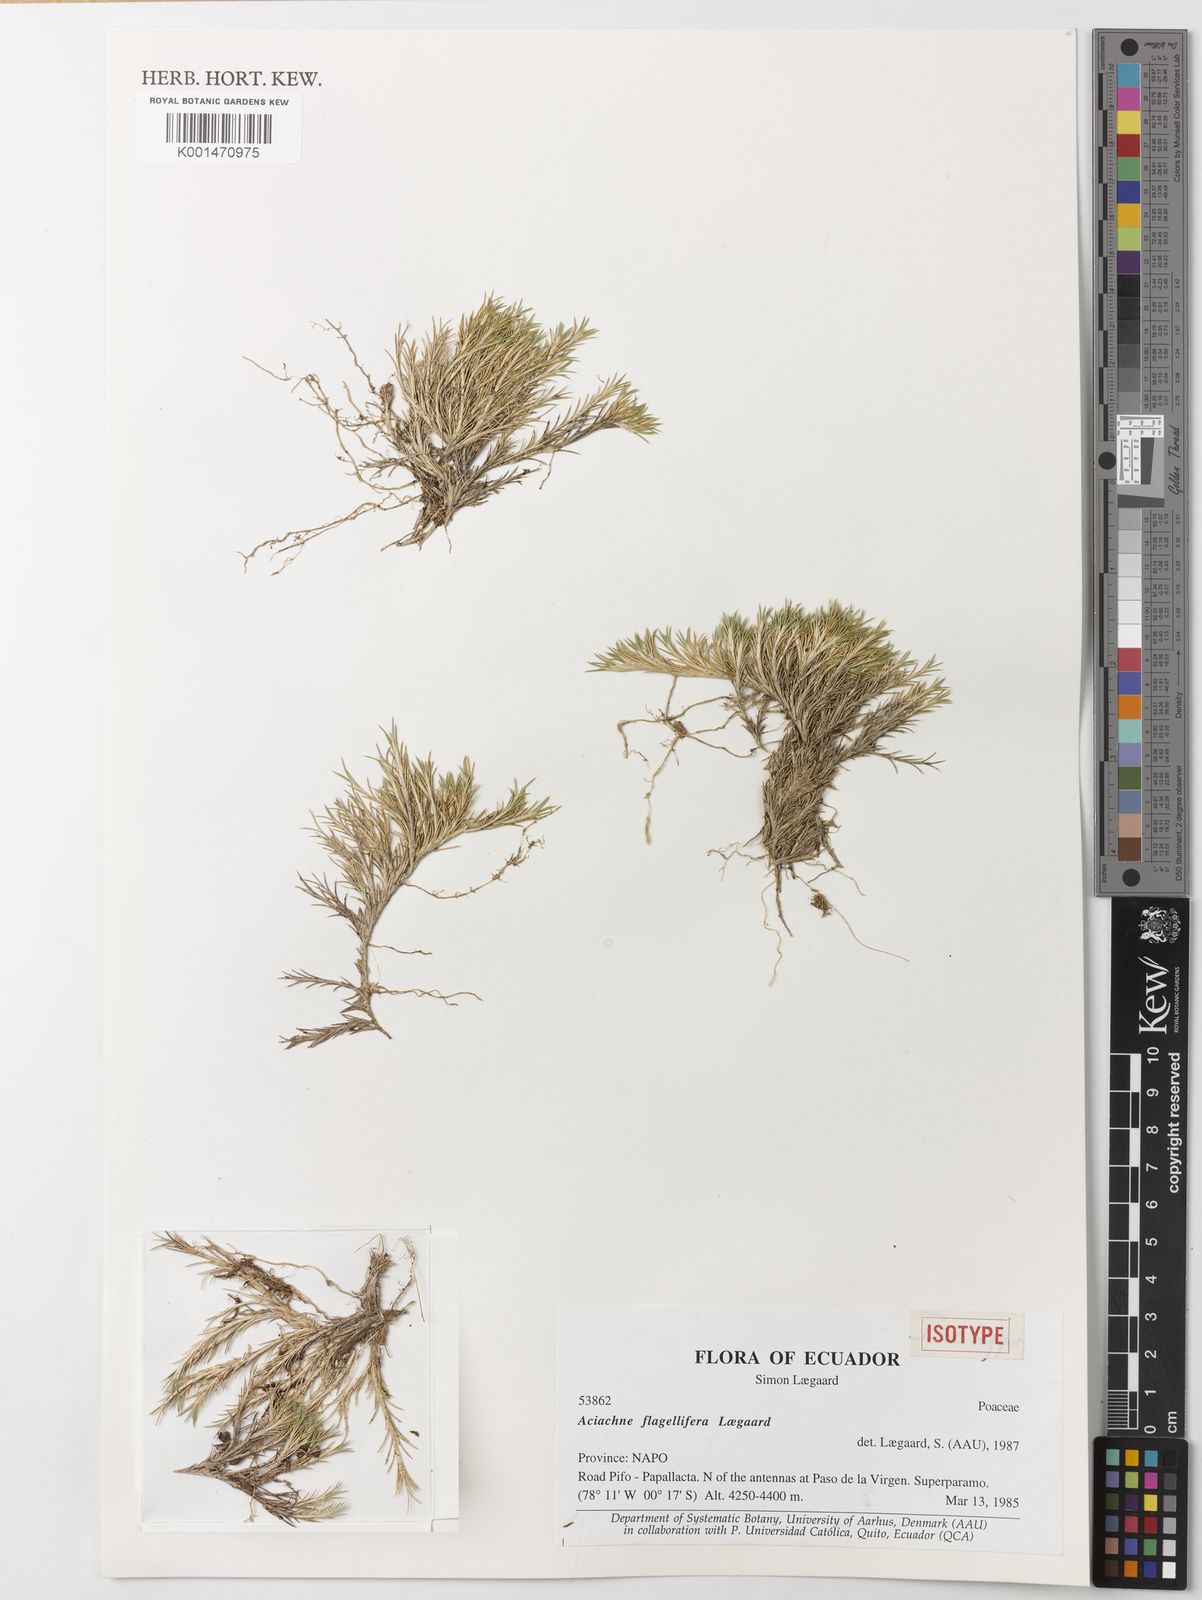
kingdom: Plantae
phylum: Tracheophyta
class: Liliopsida
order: Poales
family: Poaceae
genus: Aciachne
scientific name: Aciachne flagellifera
